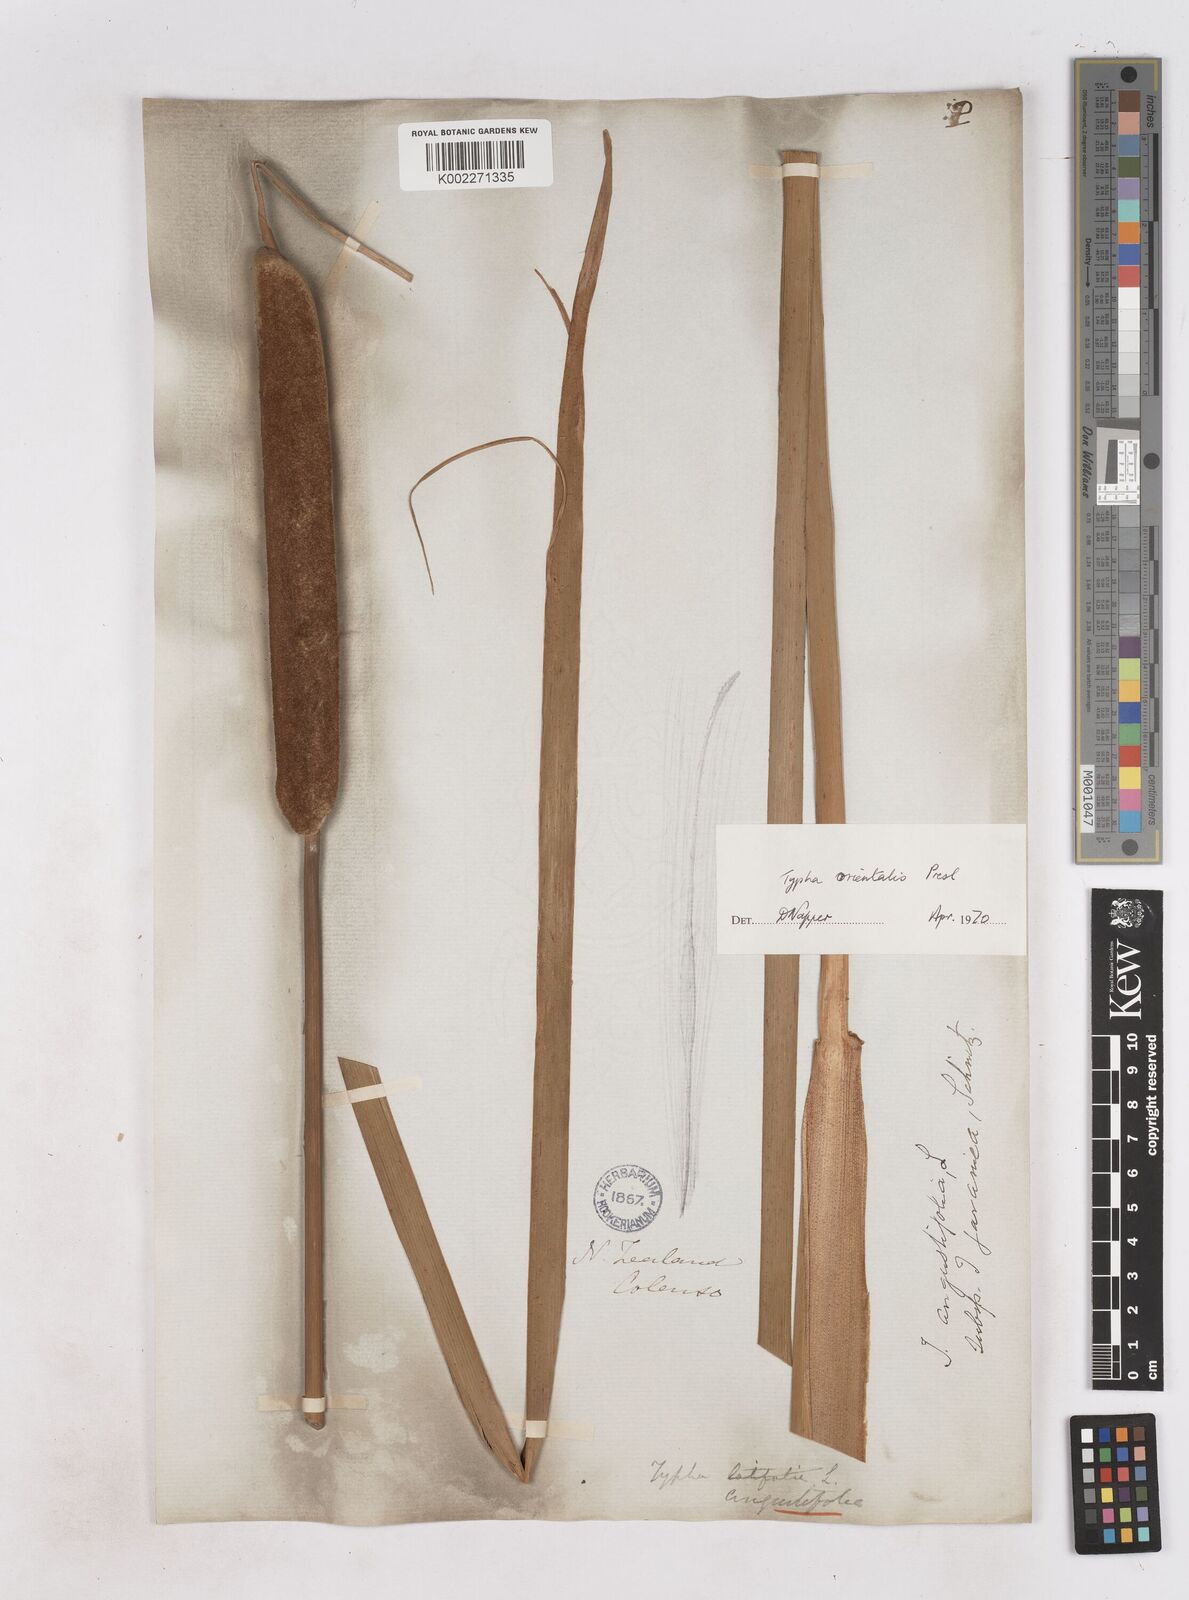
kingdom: Plantae
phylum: Tracheophyta
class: Liliopsida
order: Poales
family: Typhaceae
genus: Typha
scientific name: Typha orientalis
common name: Bullrush
